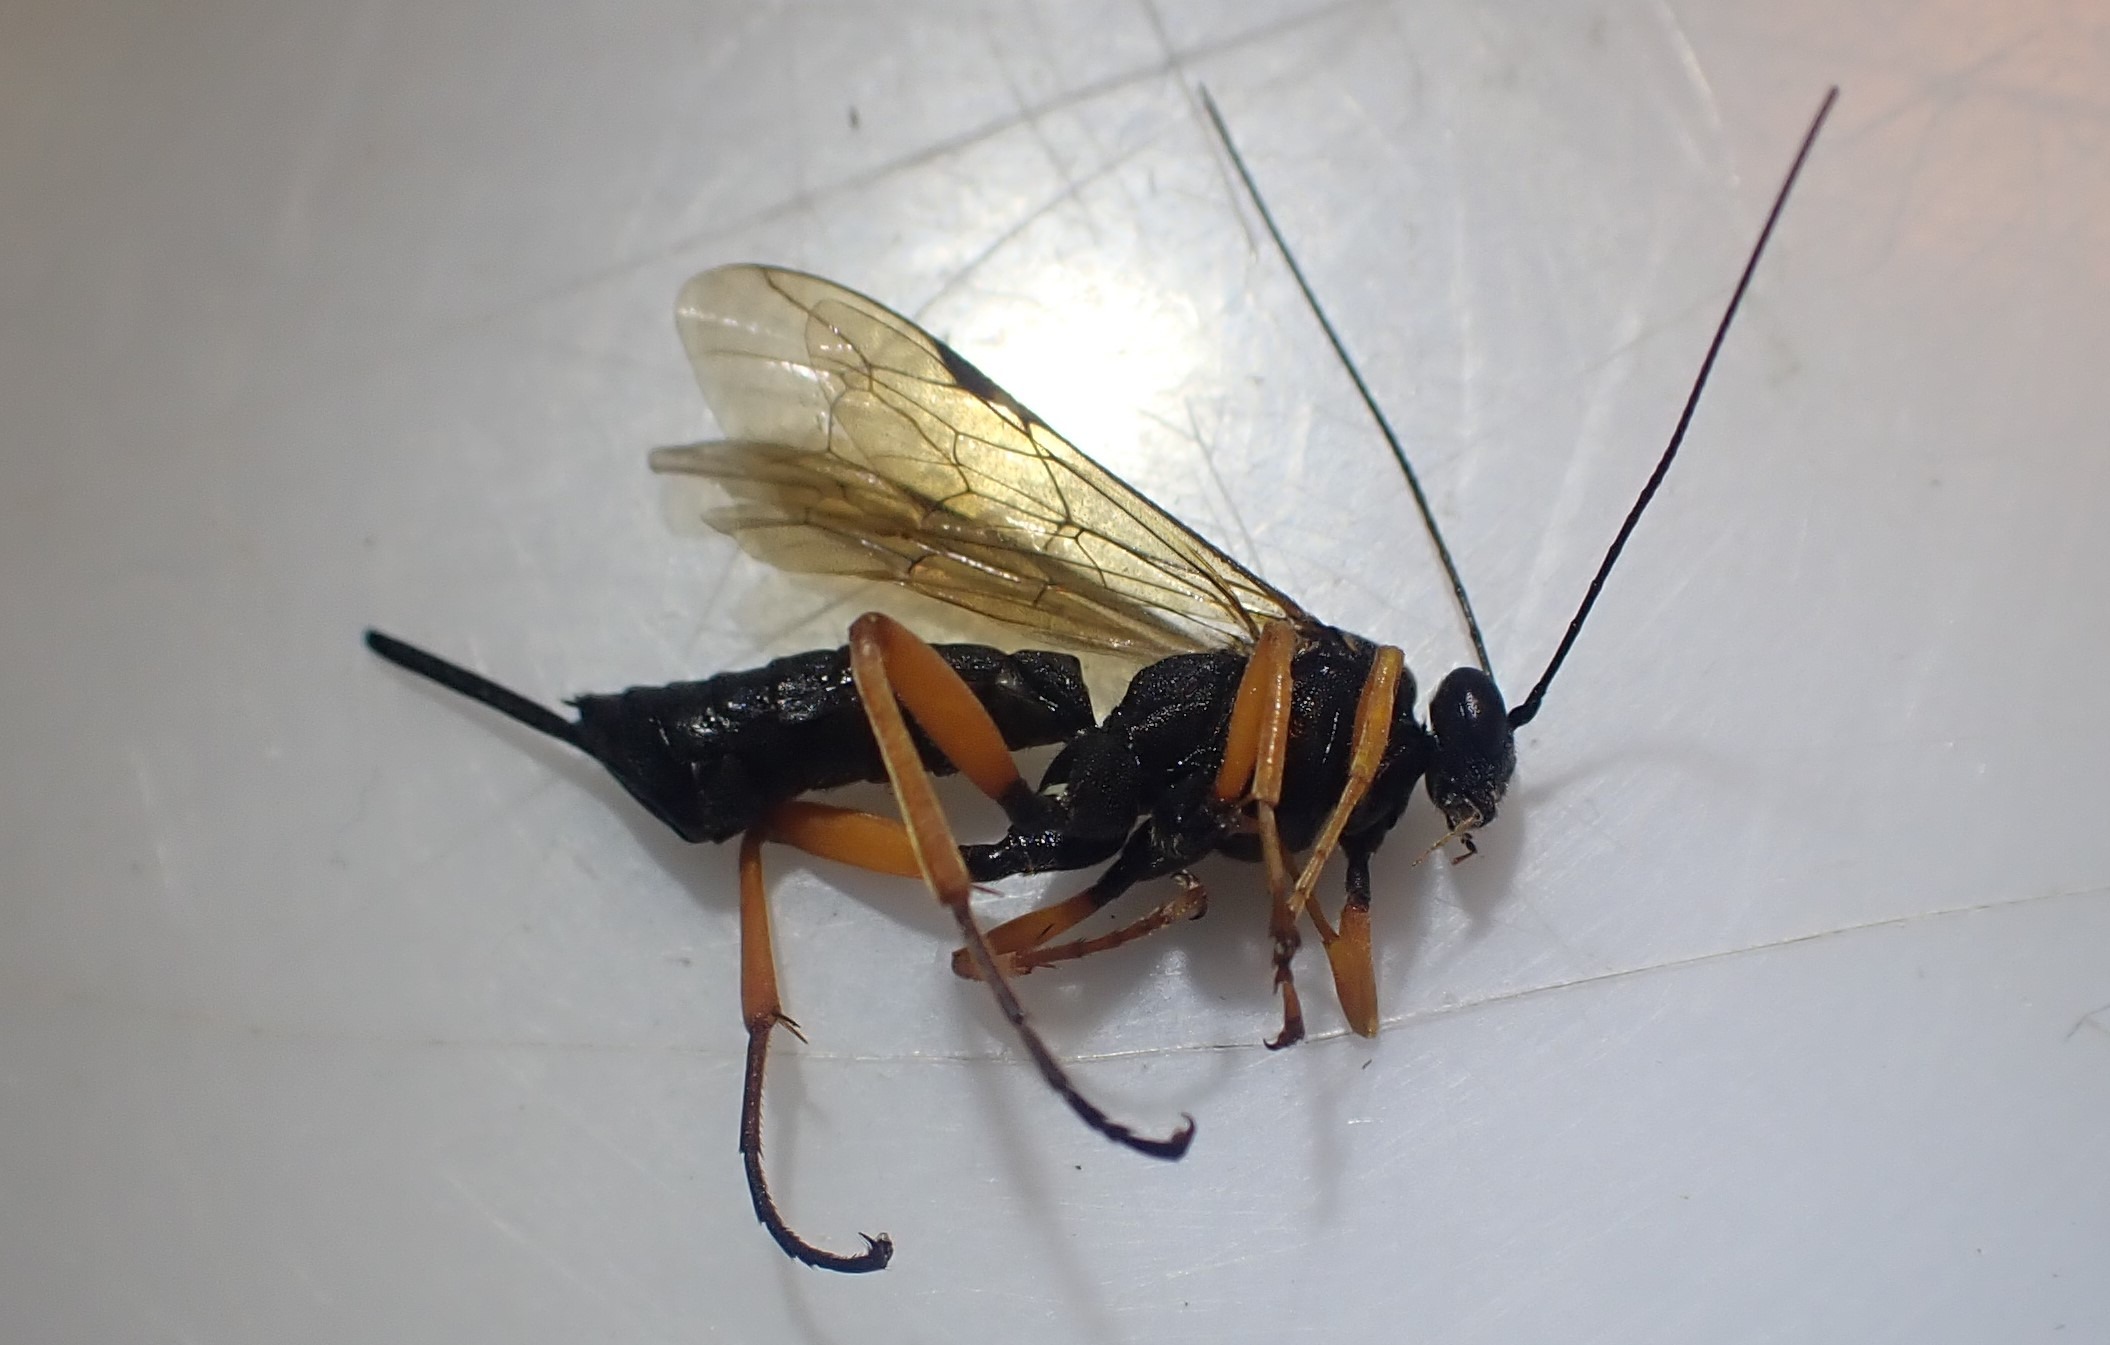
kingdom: Animalia
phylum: Arthropoda
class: Insecta
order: Hymenoptera
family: Ichneumonidae
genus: Pimpla
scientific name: Pimpla rufipes
